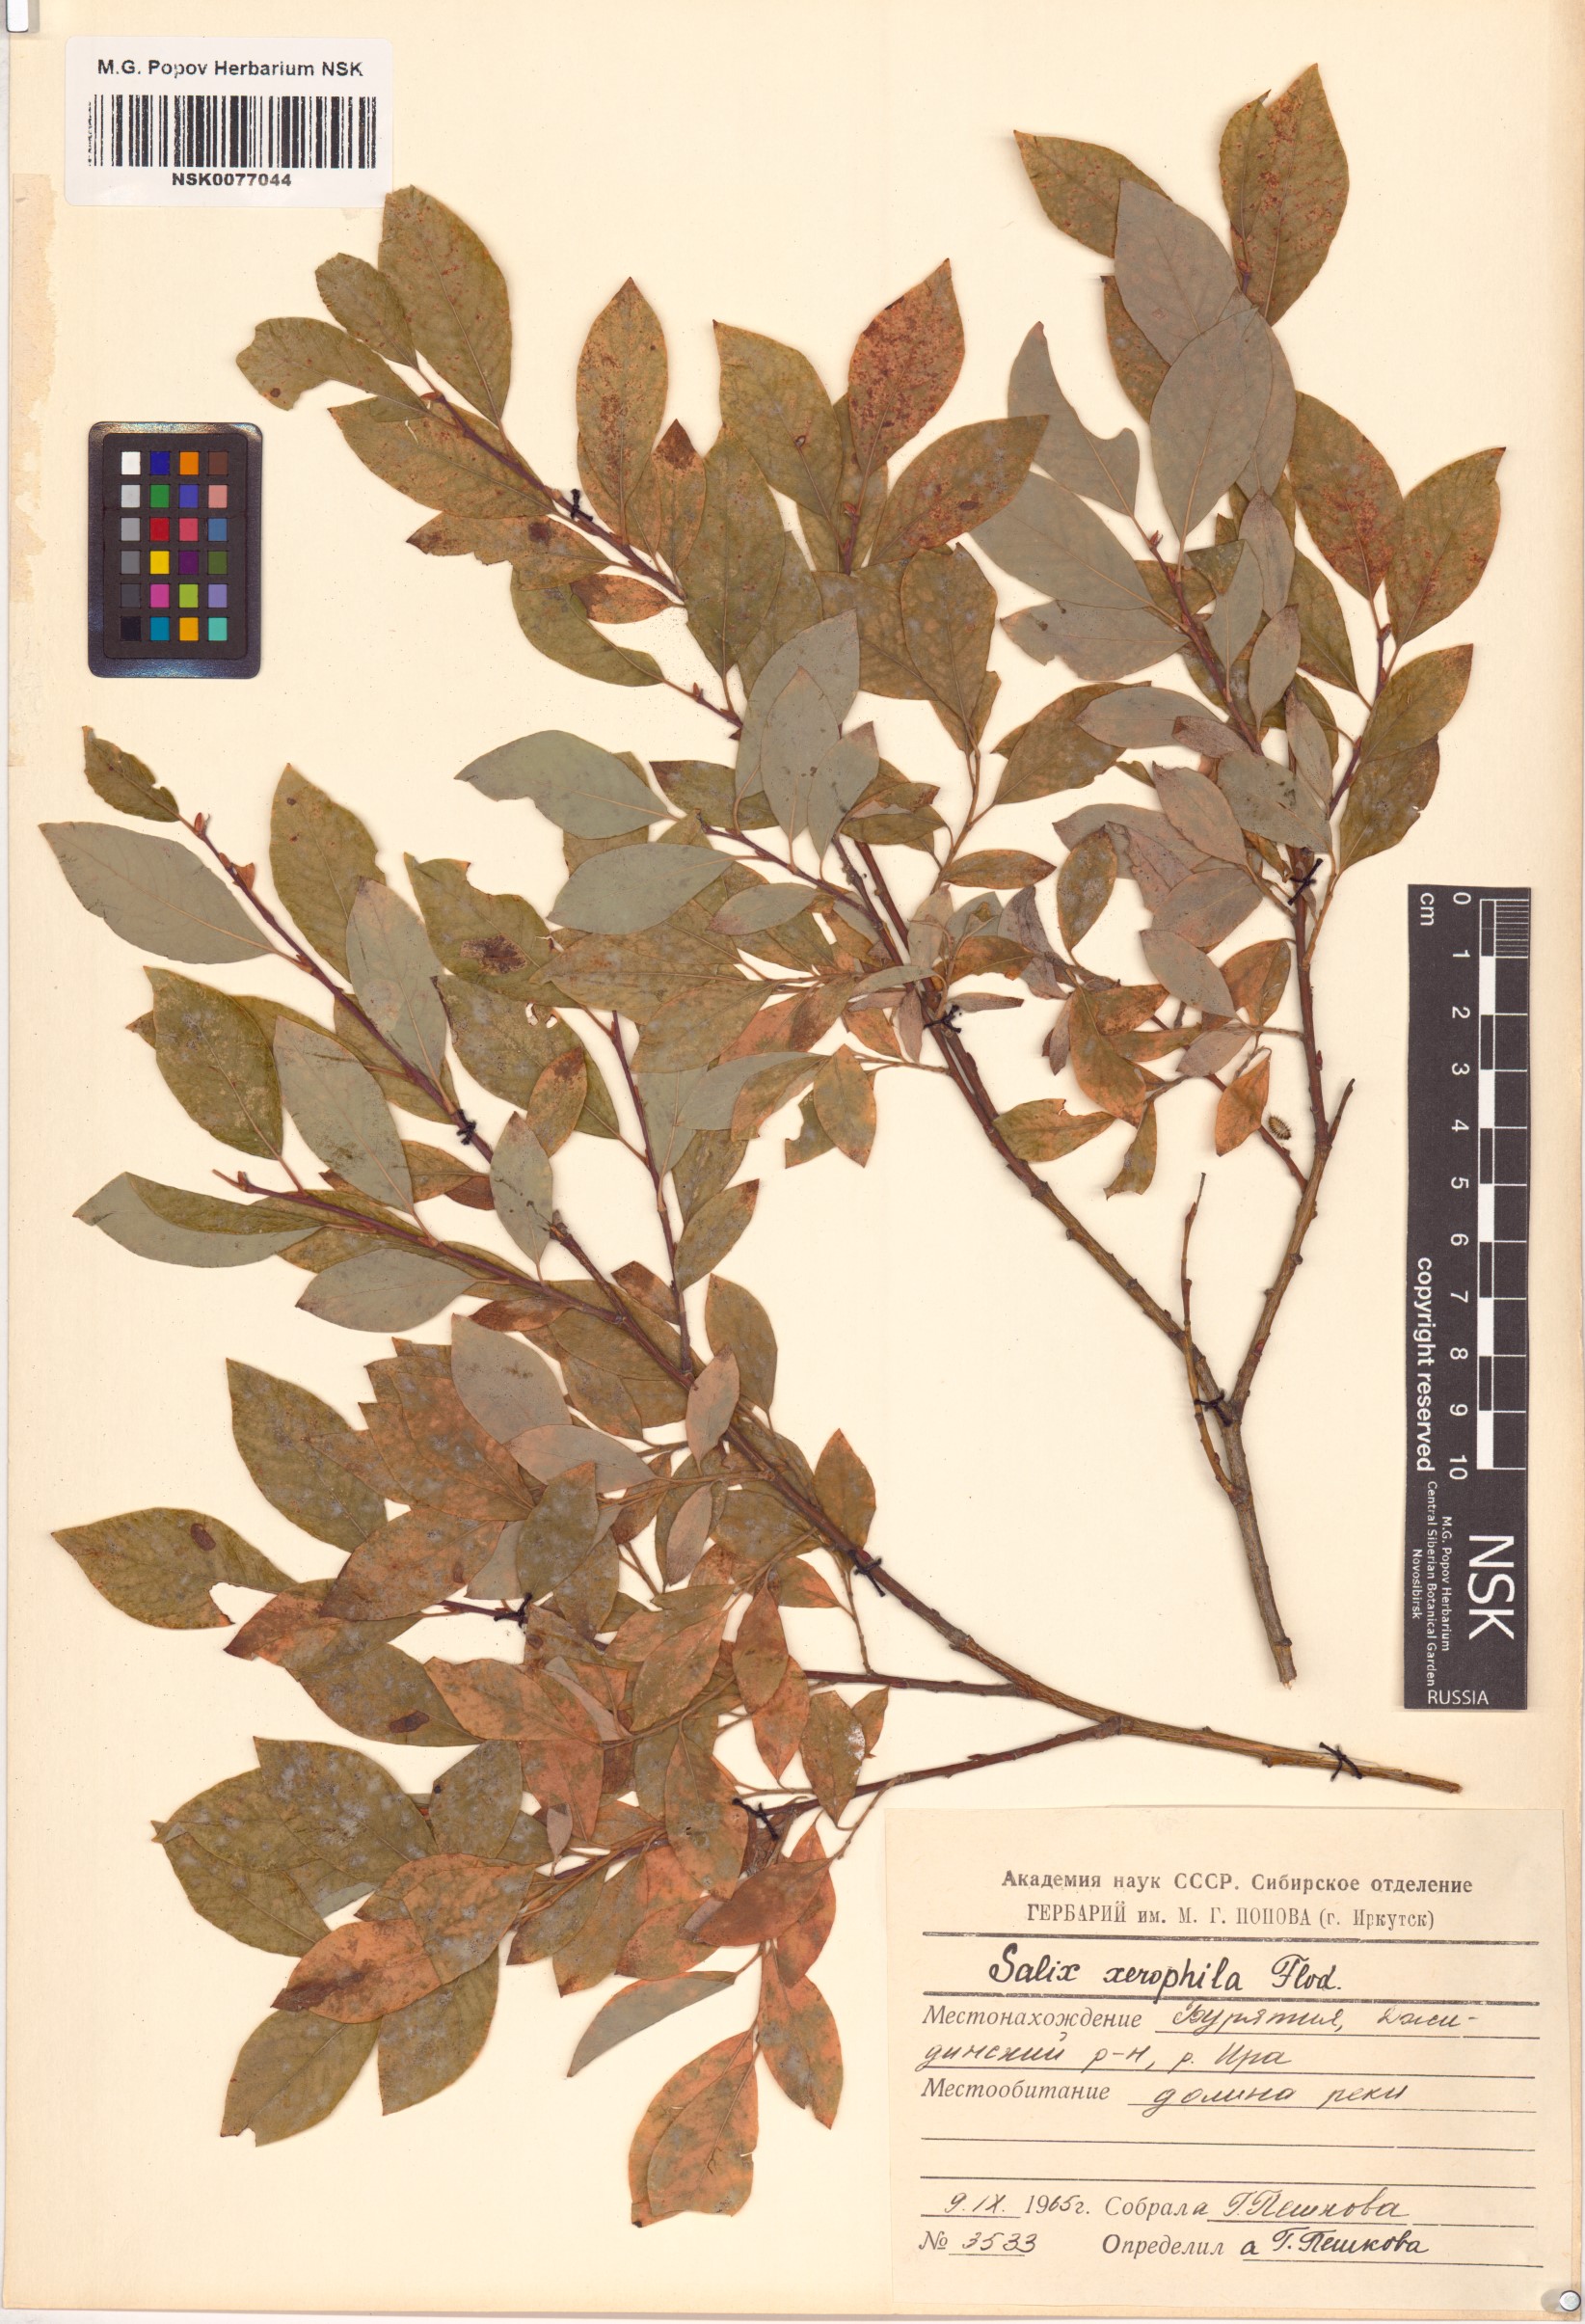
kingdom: Plantae
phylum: Tracheophyta
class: Magnoliopsida
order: Malpighiales
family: Salicaceae
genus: Salix
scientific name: Salix bebbiana
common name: Bebb's willow
